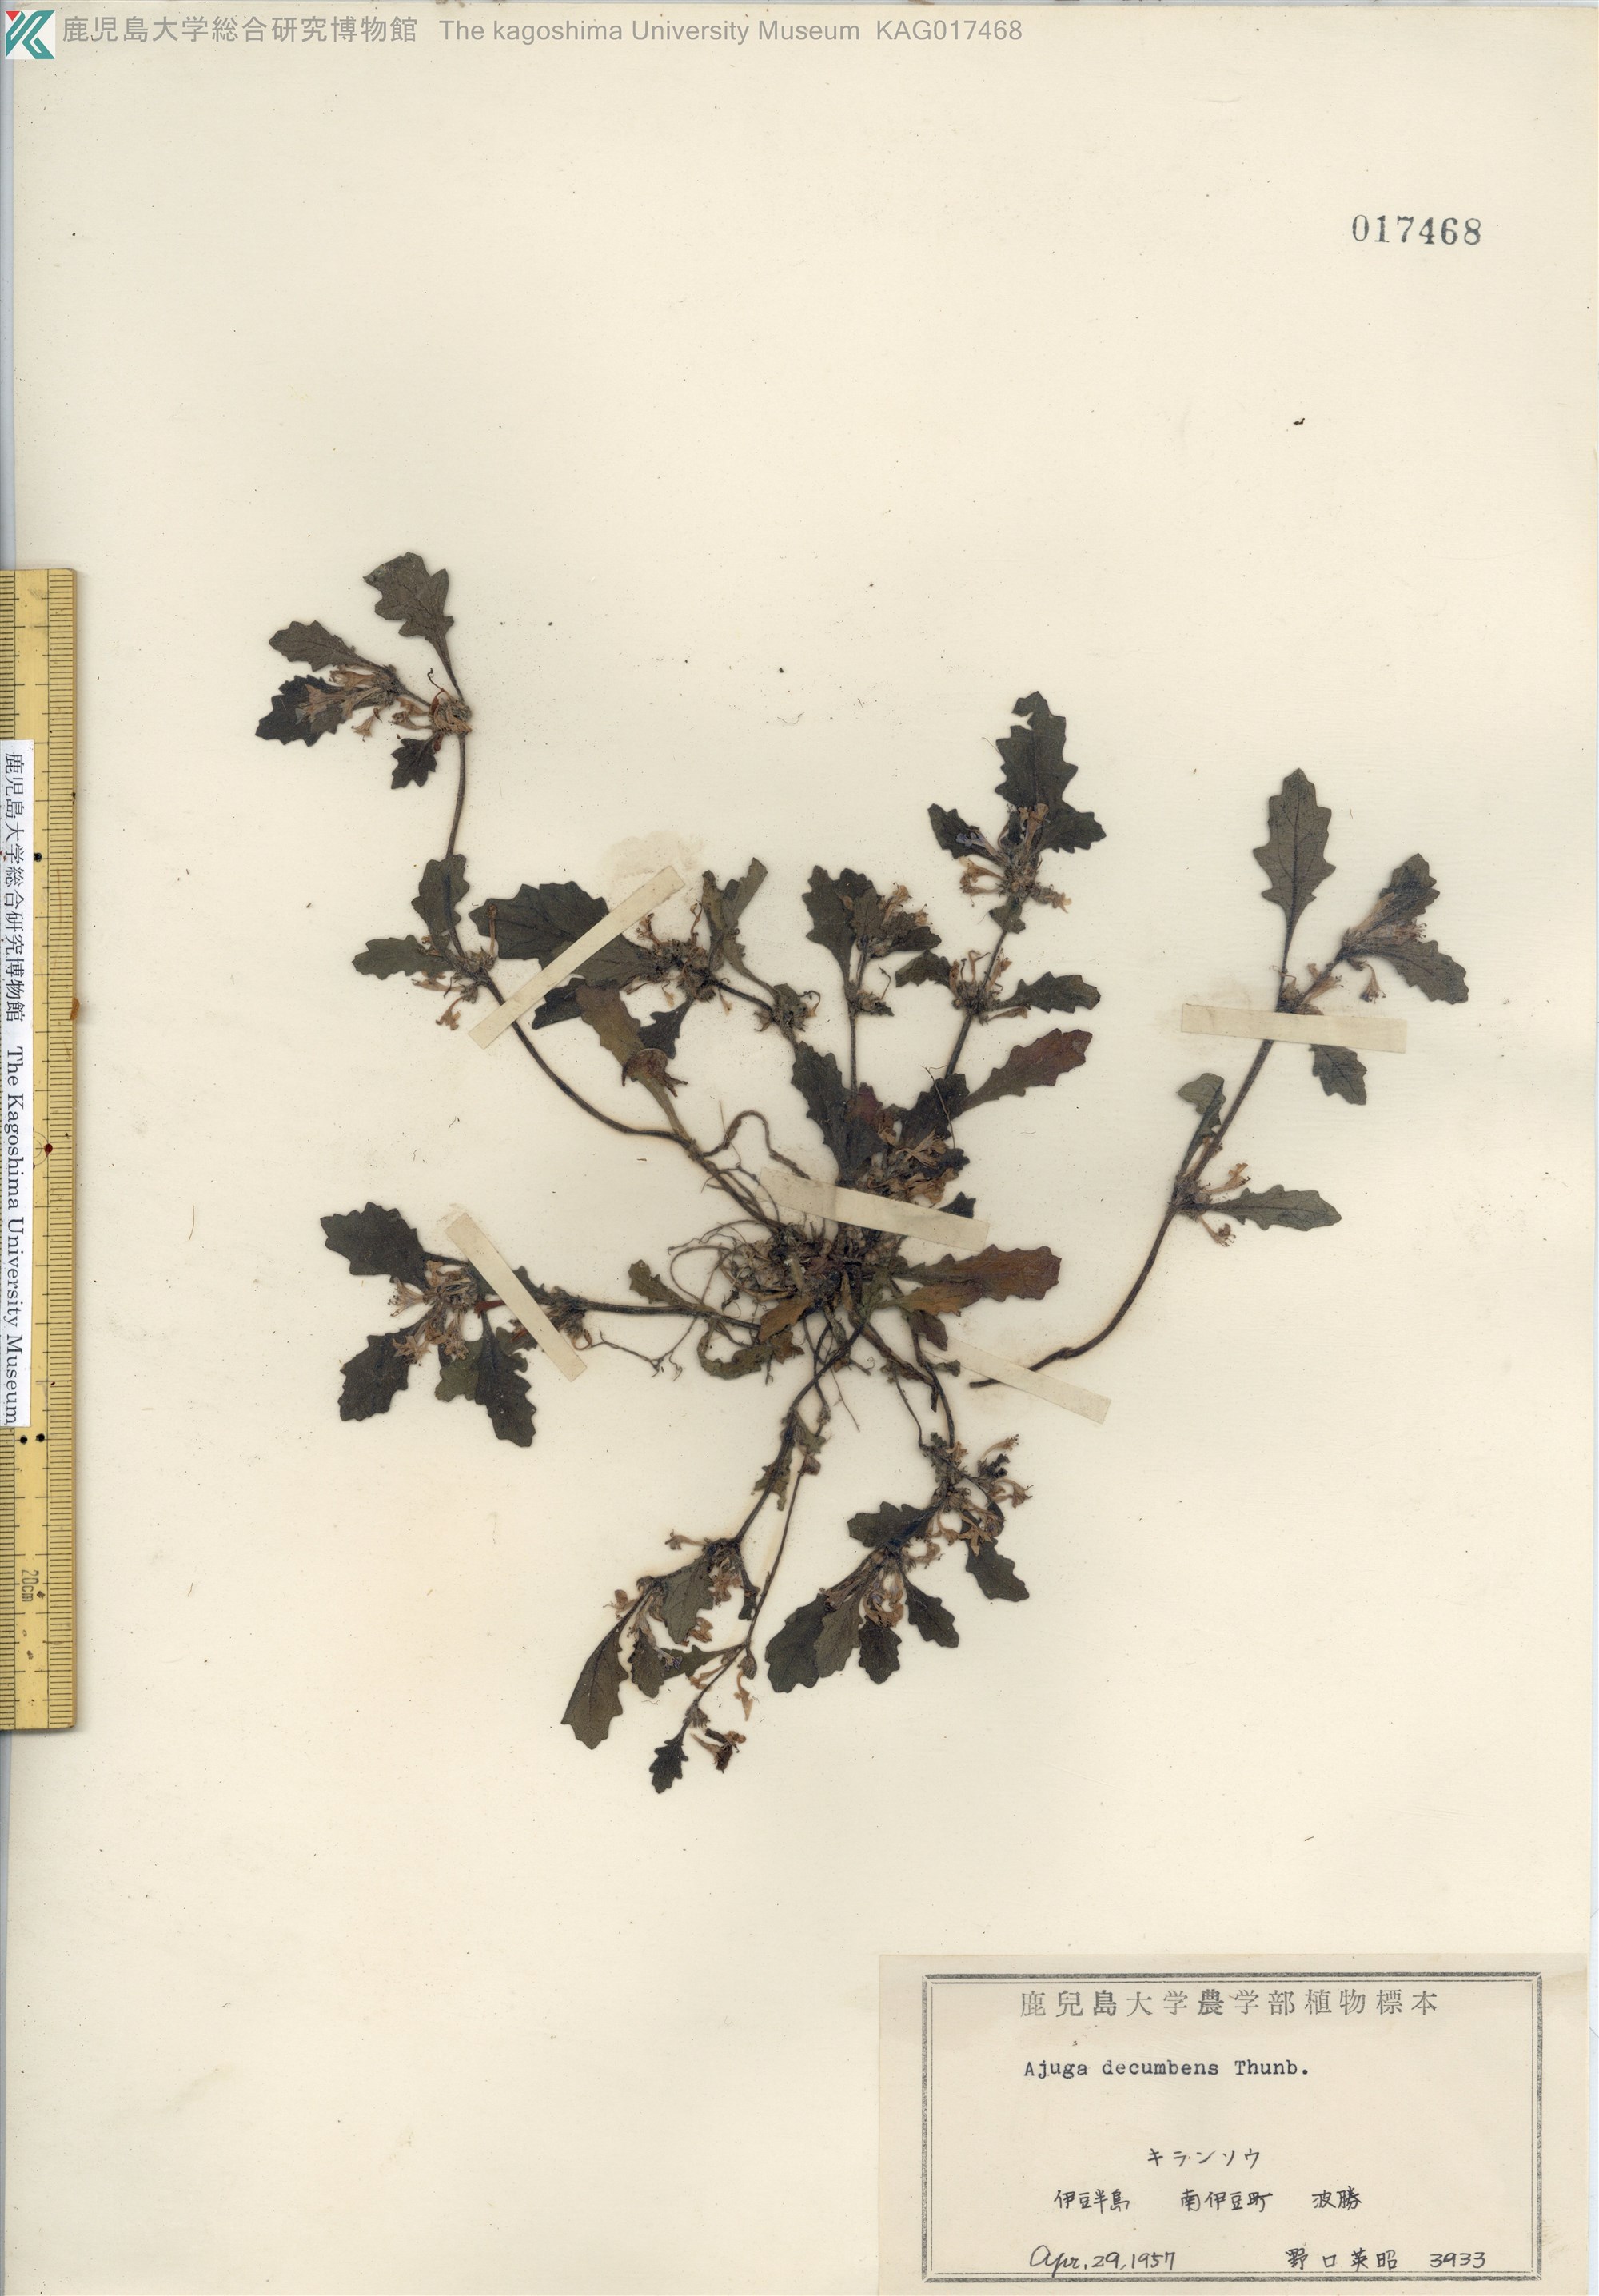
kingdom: Plantae
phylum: Tracheophyta
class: Magnoliopsida
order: Lamiales
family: Lamiaceae
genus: Ajuga
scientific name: Ajuga decumbens
